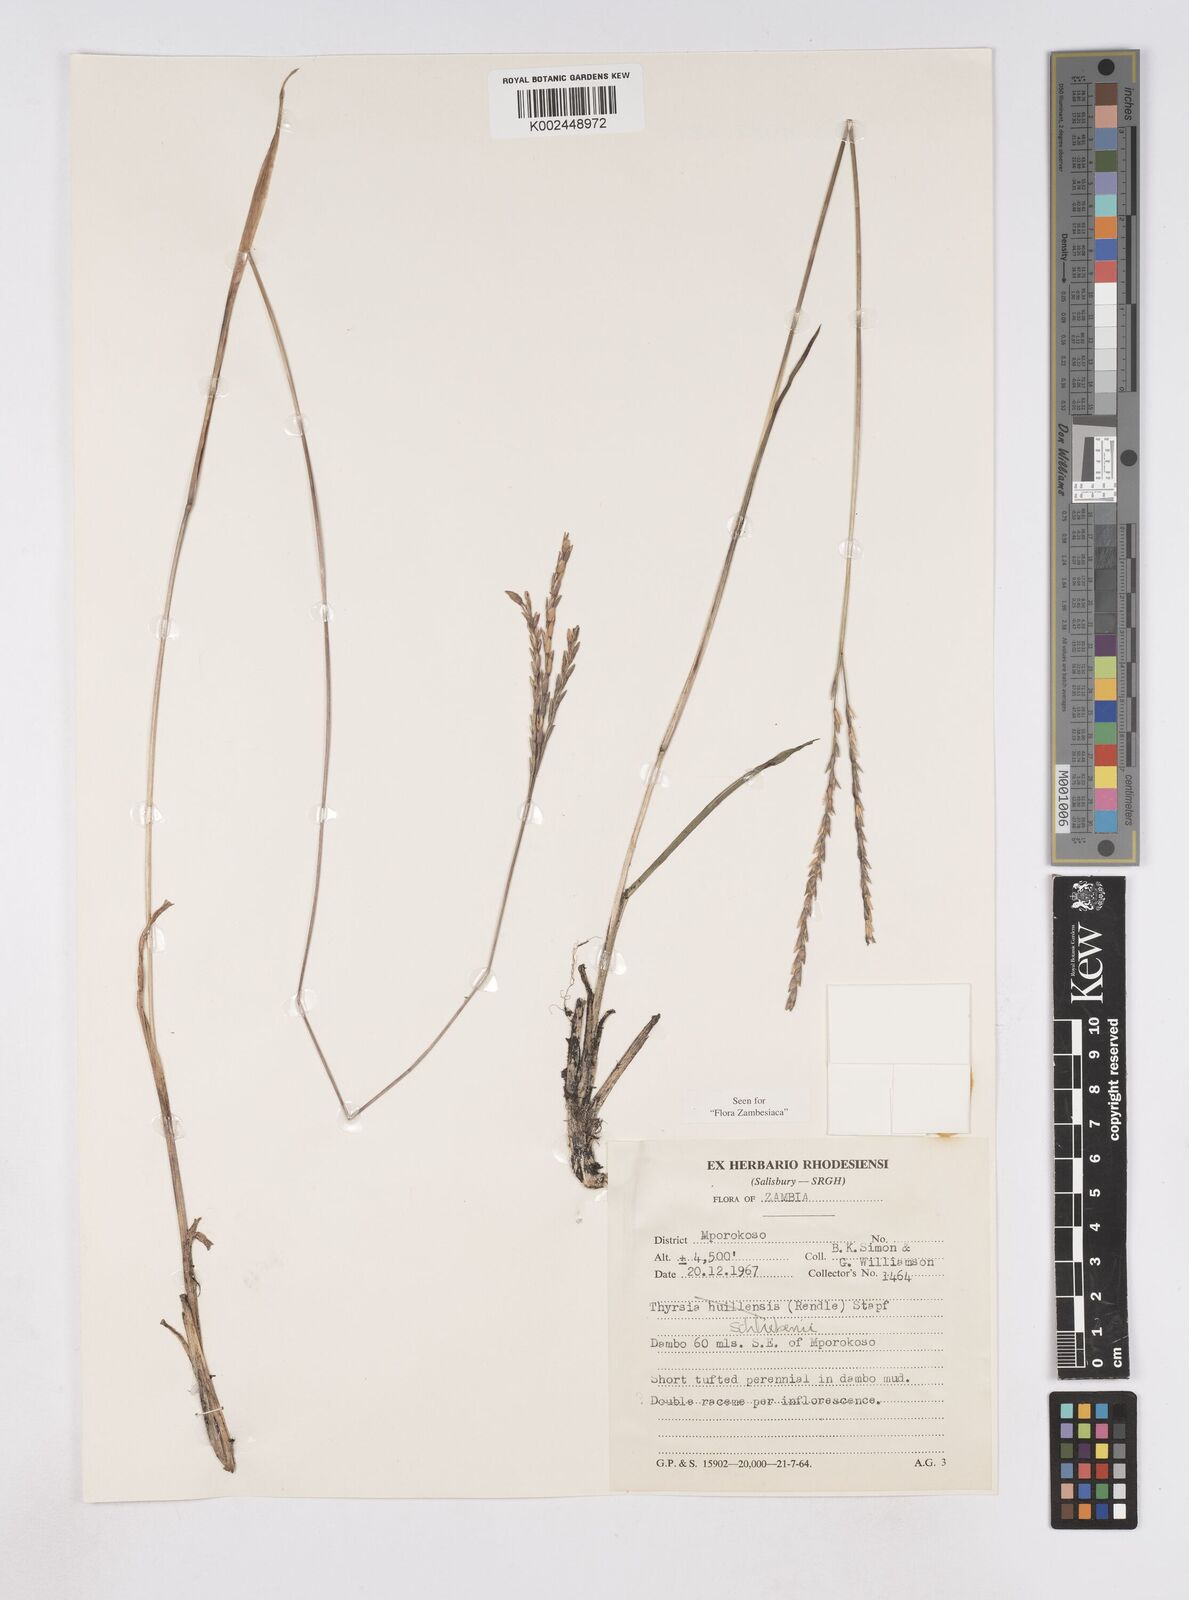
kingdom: Plantae
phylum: Tracheophyta
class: Liliopsida
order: Poales
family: Poaceae
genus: Thyrsia
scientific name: Thyrsia schliebenii
